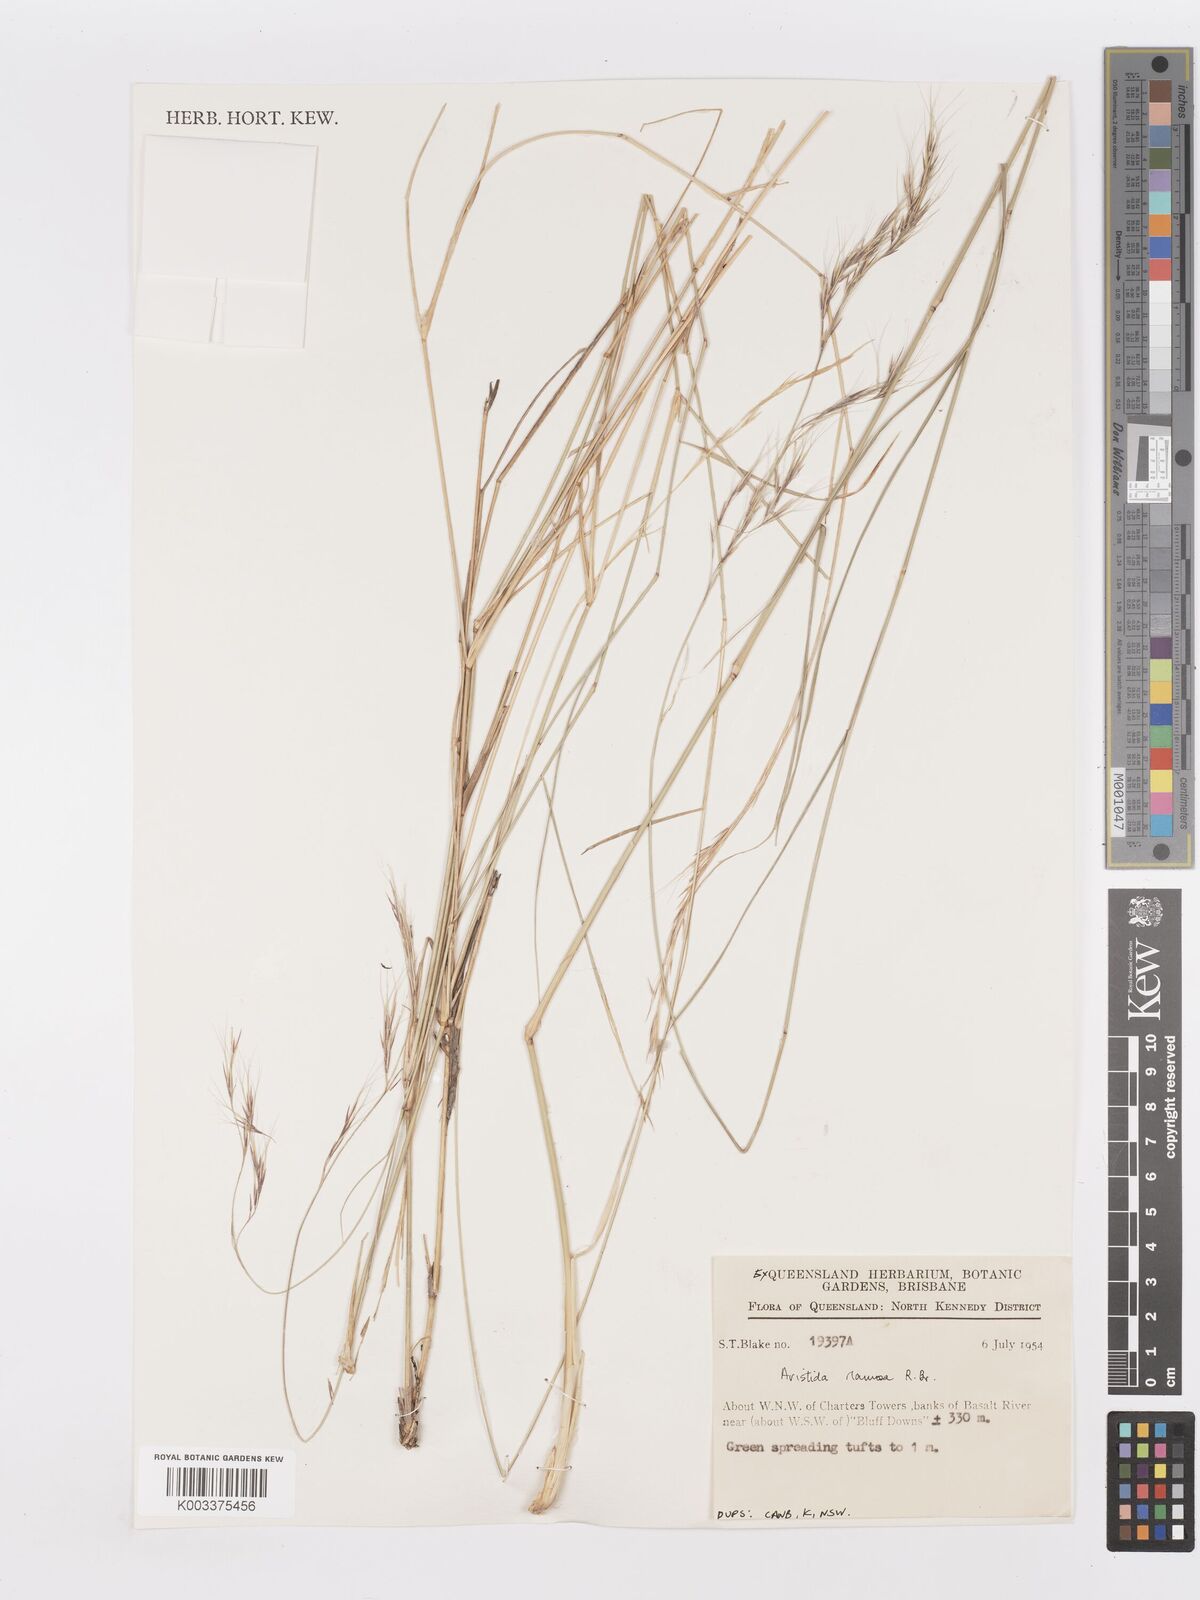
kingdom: Plantae
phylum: Tracheophyta
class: Liliopsida
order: Poales
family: Poaceae
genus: Aristida
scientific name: Aristida ramosa
